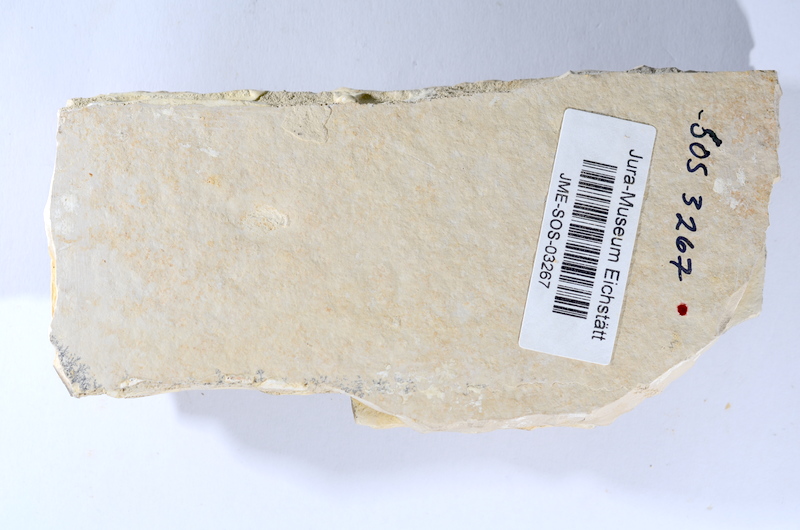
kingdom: Animalia
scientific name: Animalia
